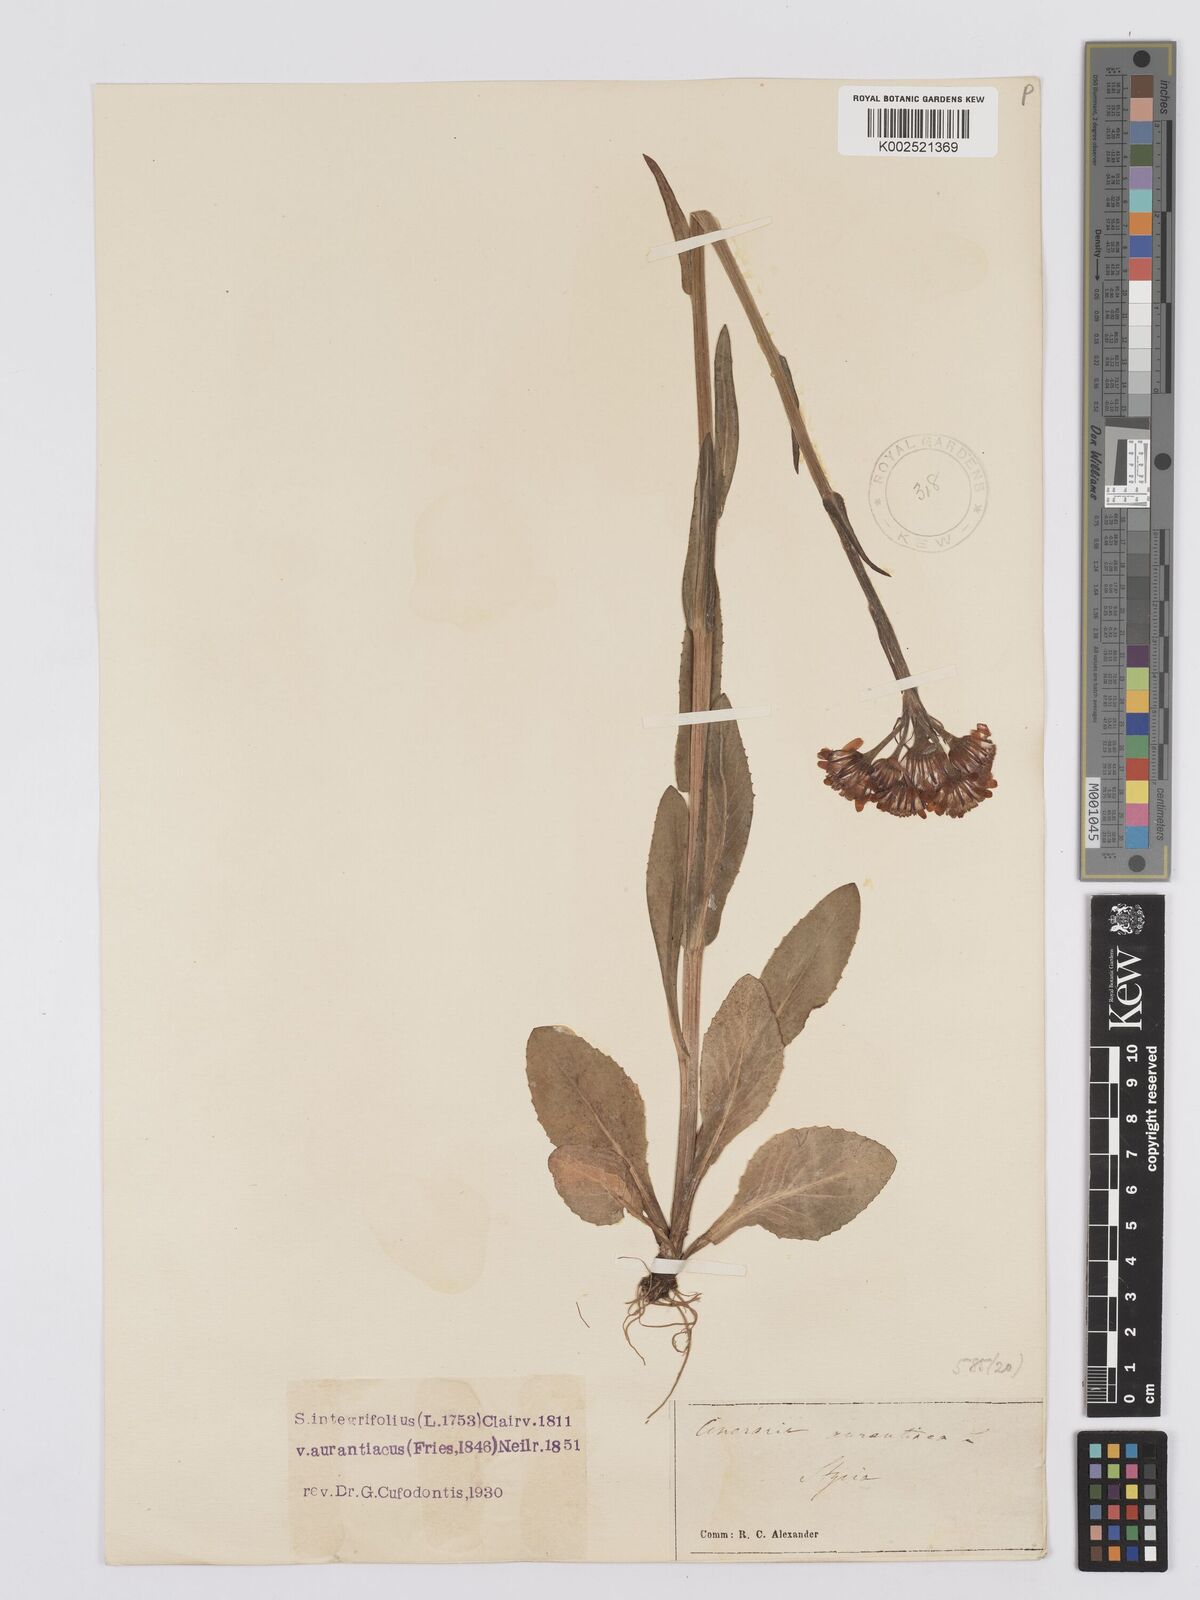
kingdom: Plantae
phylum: Tracheophyta
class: Magnoliopsida
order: Asterales
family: Asteraceae
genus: Tephroseris
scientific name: Tephroseris aurantiaca
